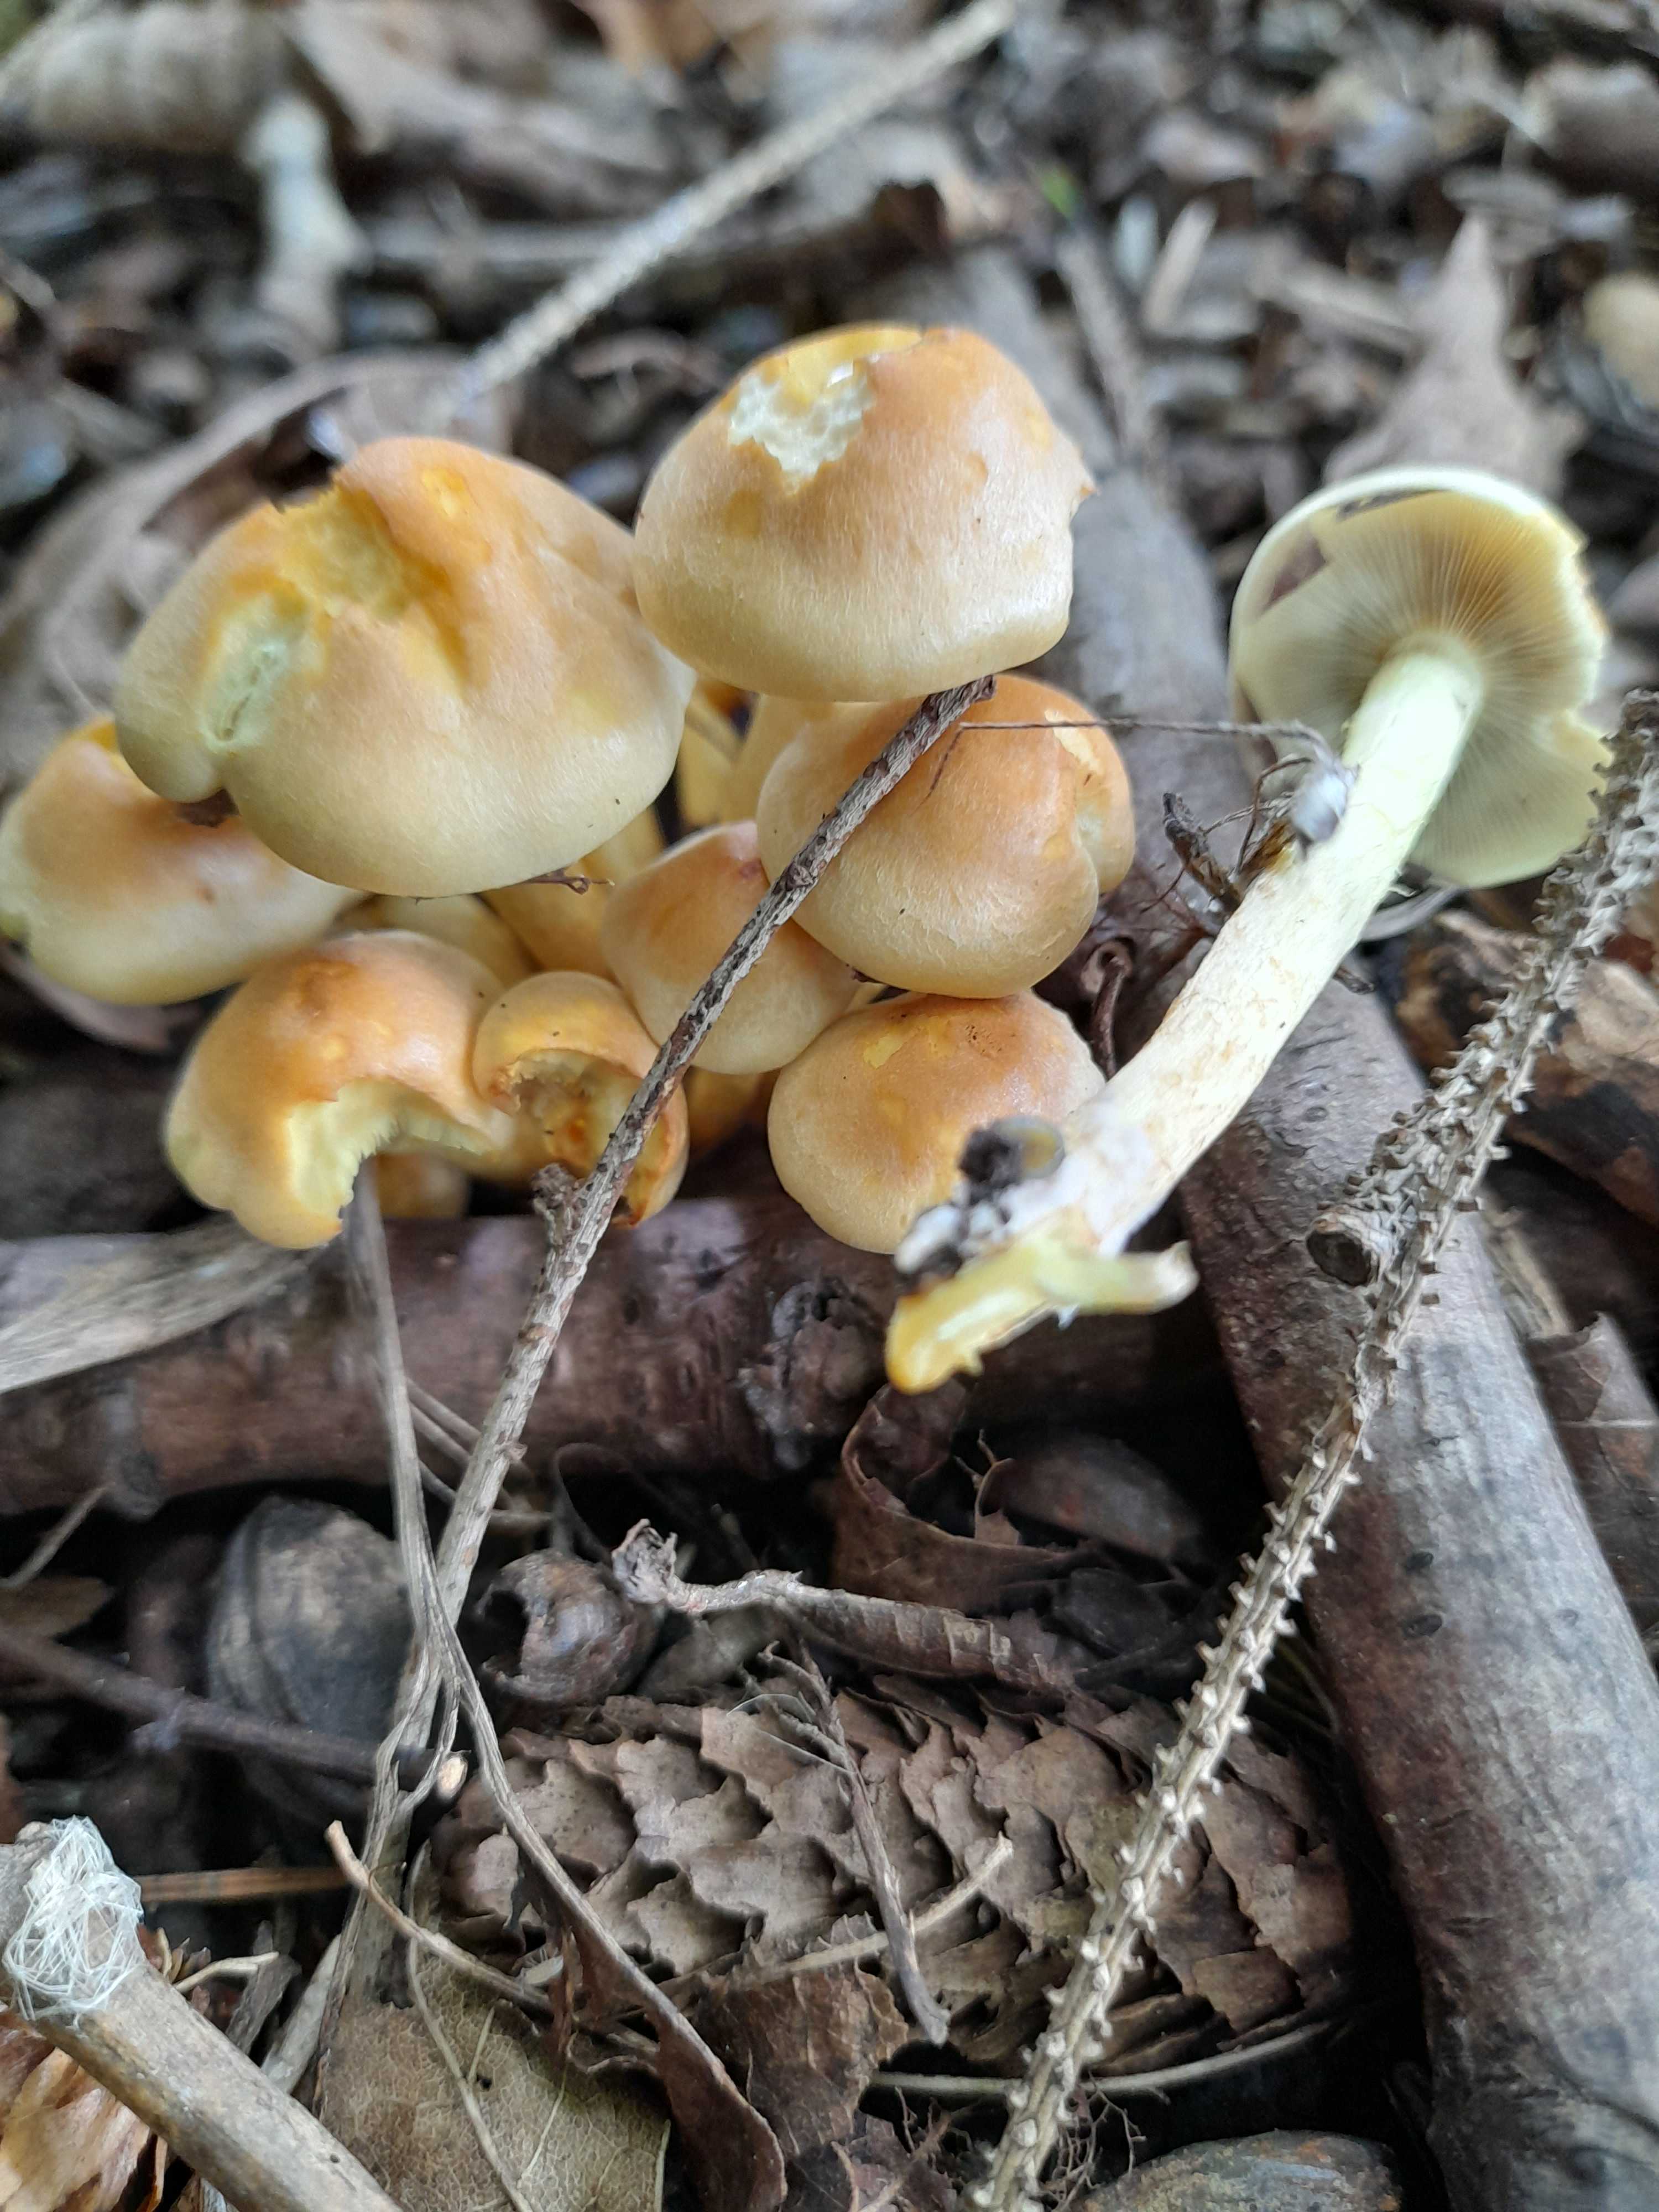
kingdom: Fungi
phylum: Basidiomycota
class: Agaricomycetes
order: Agaricales
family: Strophariaceae
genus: Hypholoma
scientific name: Hypholoma fasciculare
